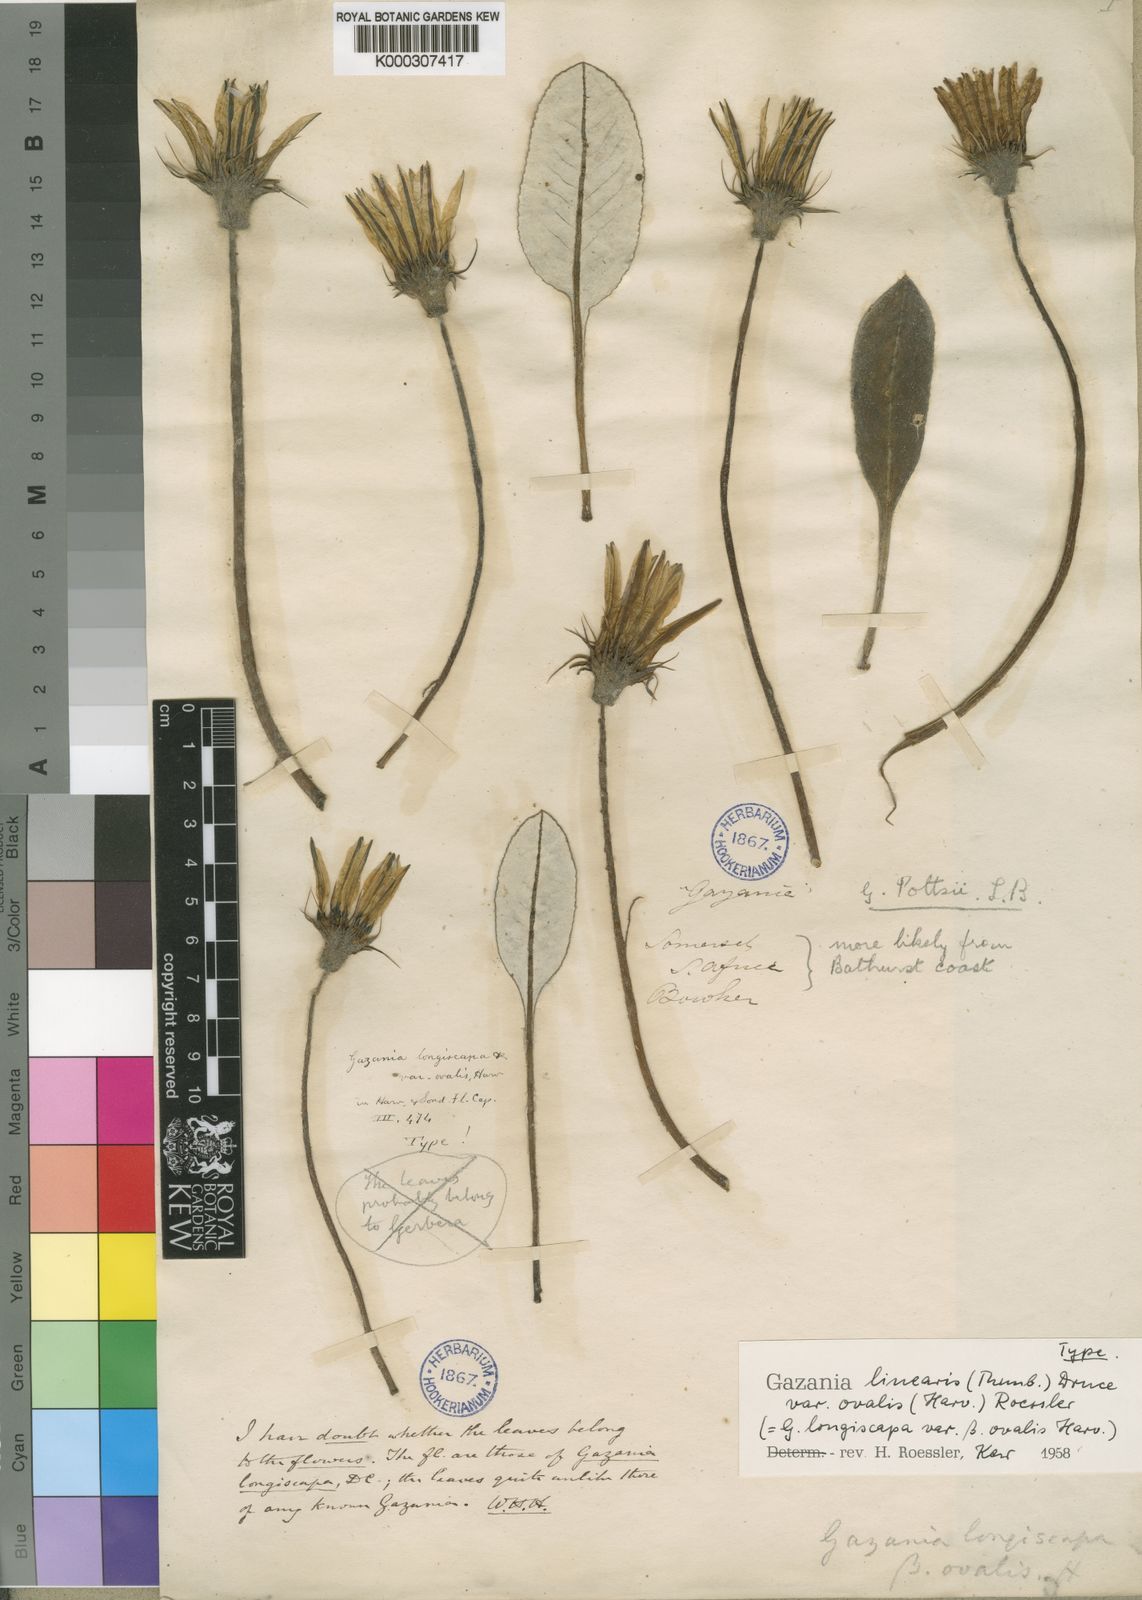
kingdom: Plantae
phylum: Tracheophyta
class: Magnoliopsida
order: Asterales
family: Asteraceae
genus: Gazania
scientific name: Gazania linearis
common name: Treasureflower
